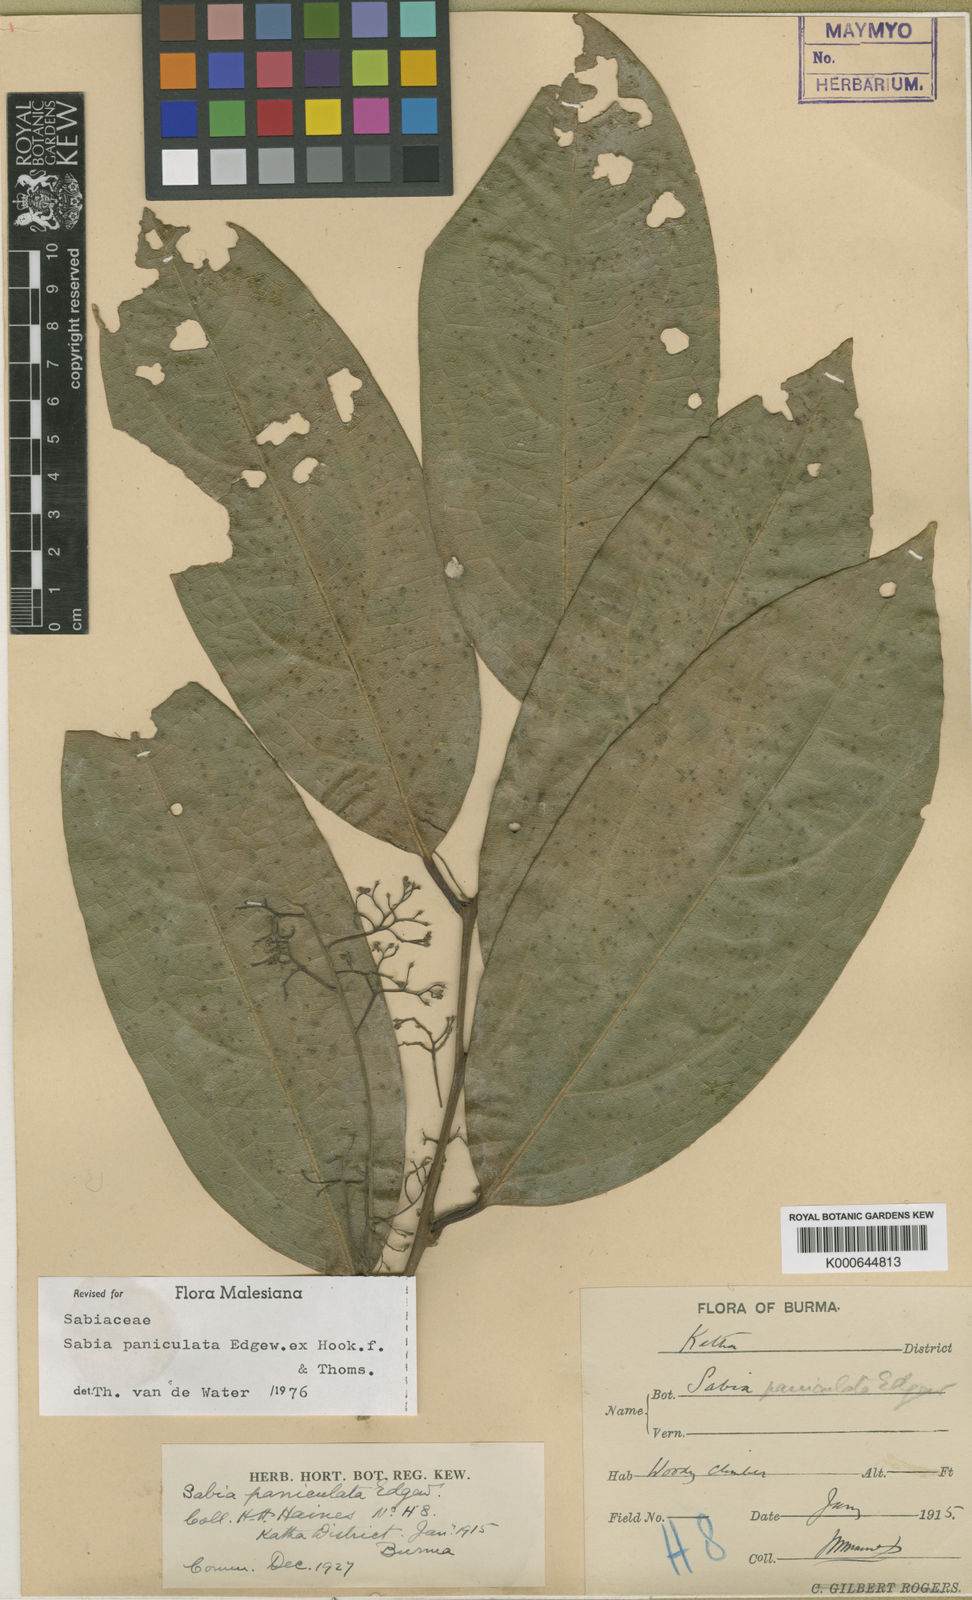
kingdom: Plantae
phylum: Tracheophyta
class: Magnoliopsida
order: Proteales
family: Sabiaceae
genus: Sabia
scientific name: Sabia paniculata
